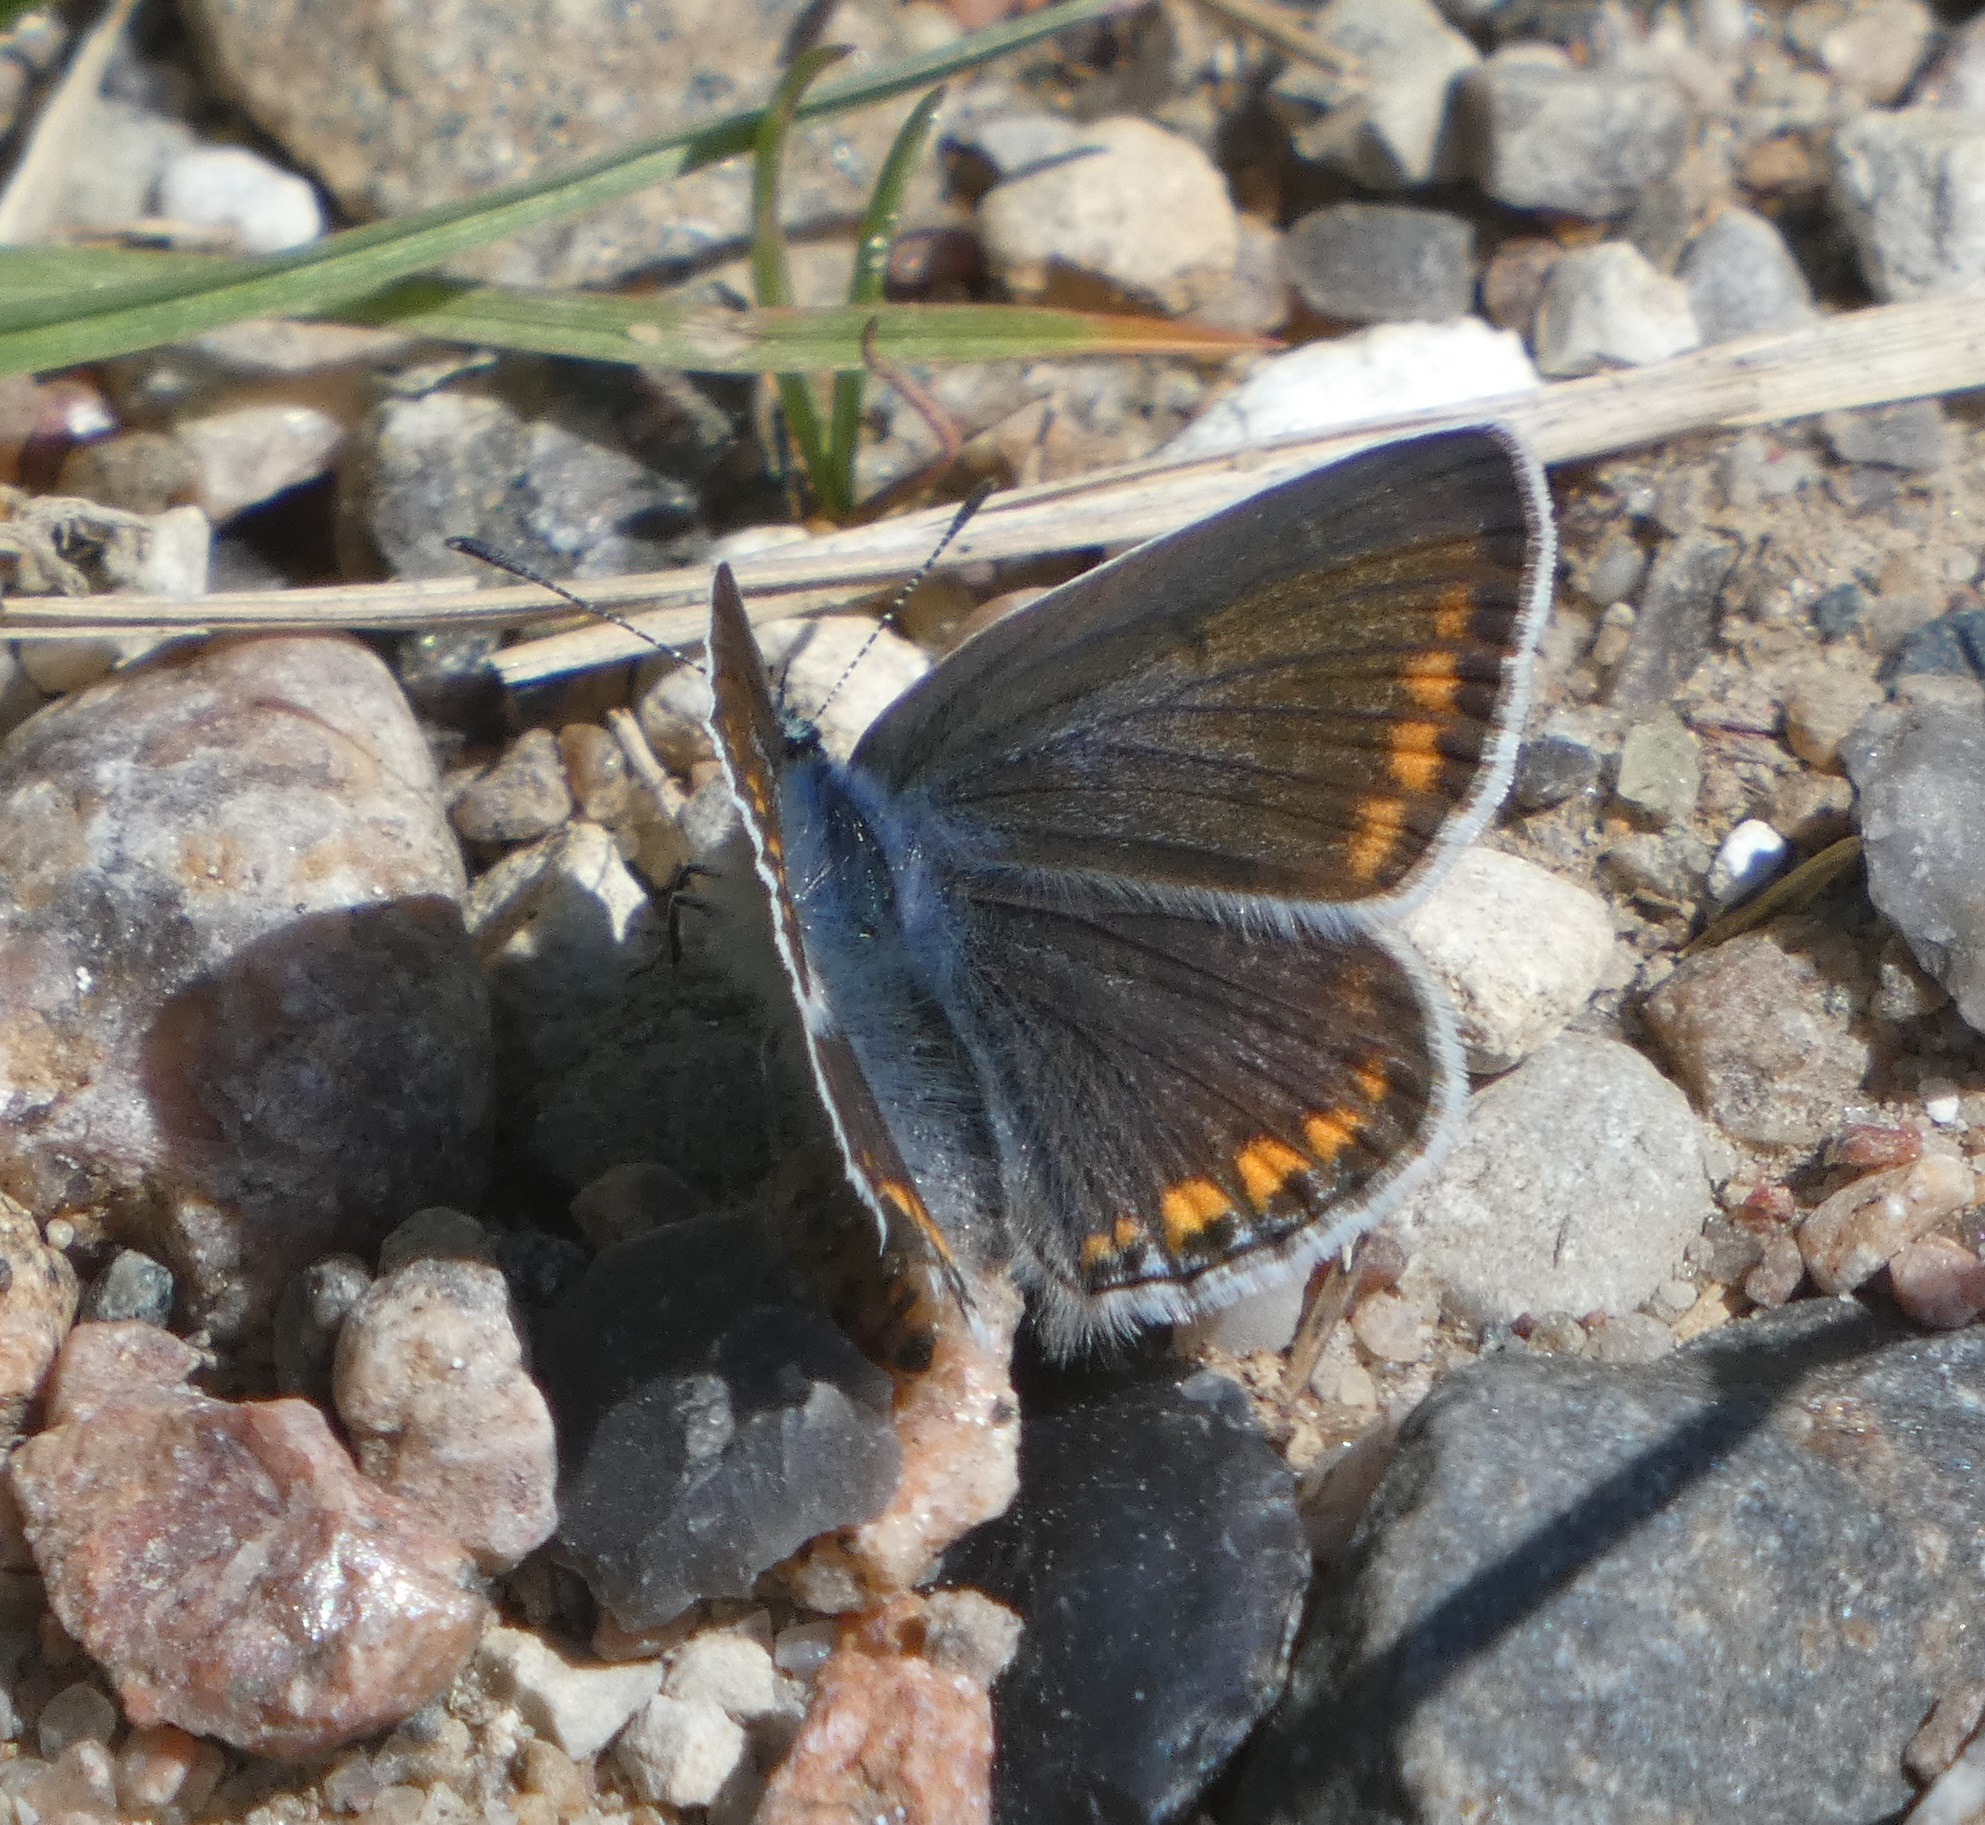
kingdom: Animalia
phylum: Arthropoda
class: Insecta
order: Lepidoptera
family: Lycaenidae
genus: Polyommatus
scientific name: Polyommatus icarus
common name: Almindelig blåfugl
